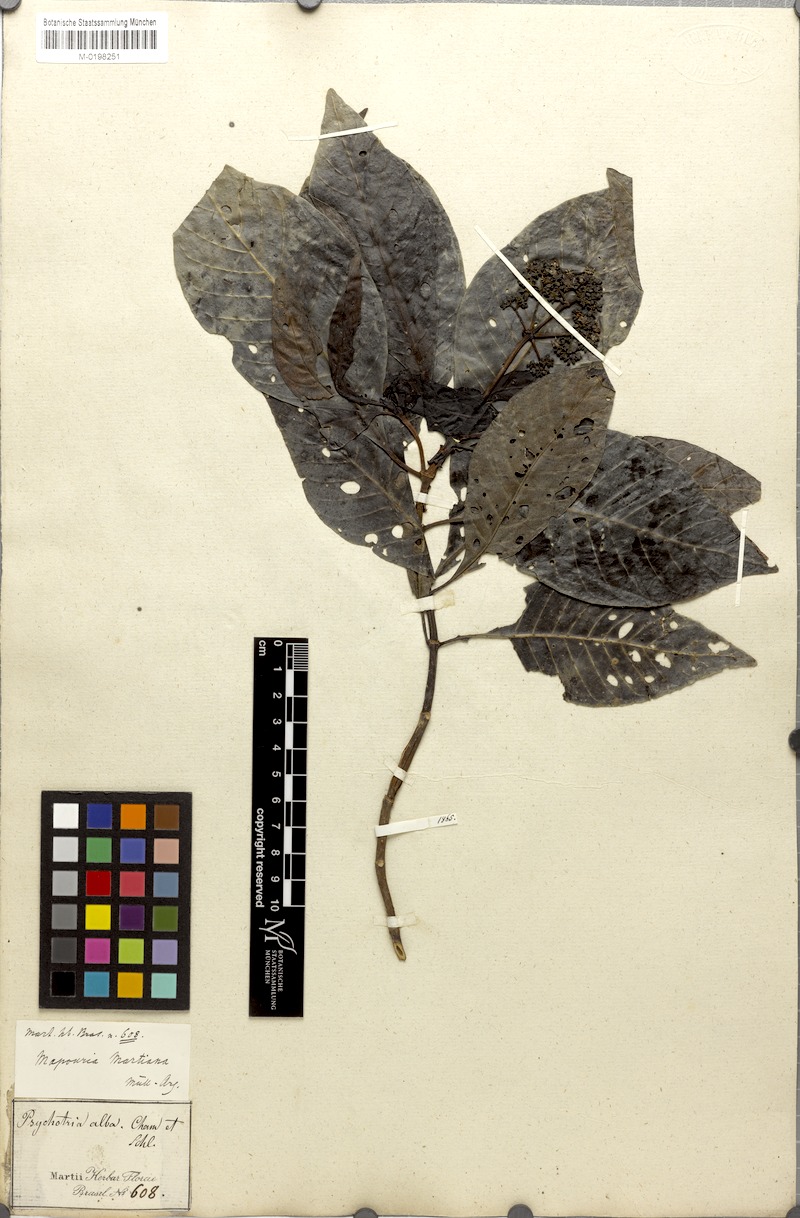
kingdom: Plantae
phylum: Tracheophyta
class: Magnoliopsida
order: Gentianales
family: Rubiaceae
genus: Psychotria
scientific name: Psychotria carthagenensis
